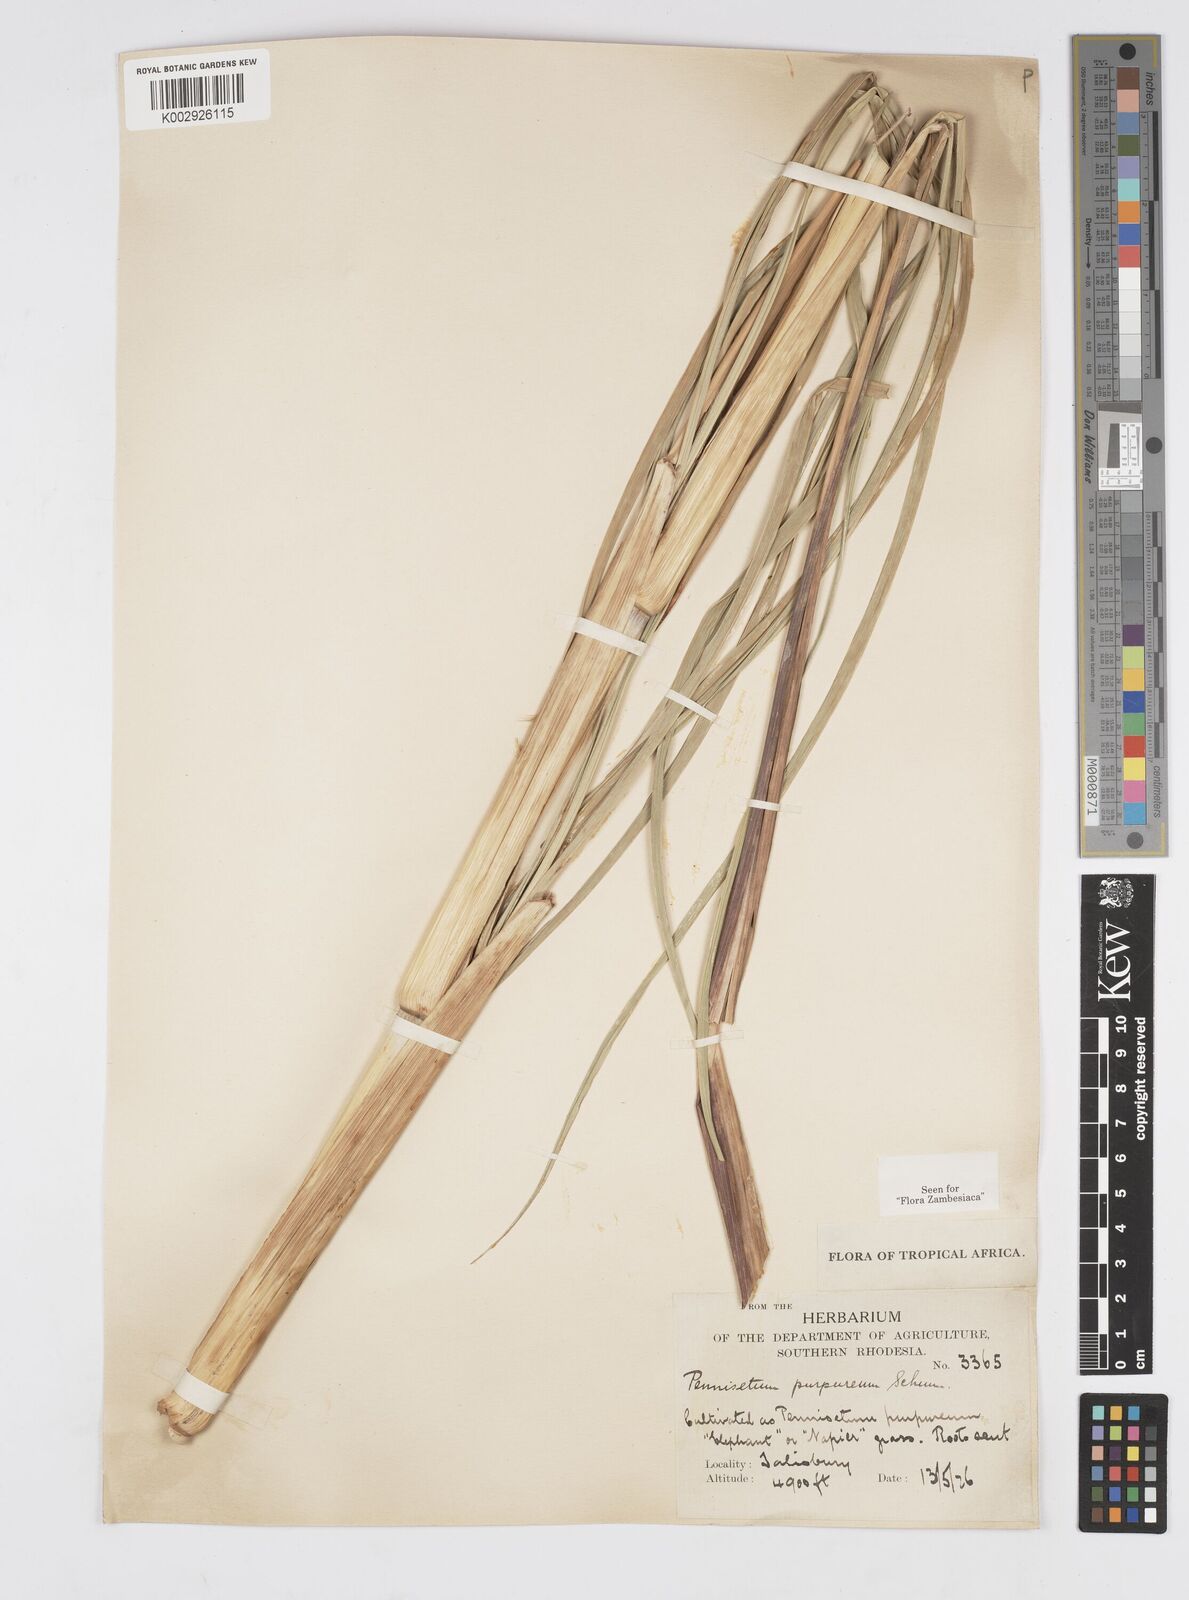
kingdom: Plantae
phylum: Tracheophyta
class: Liliopsida
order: Poales
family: Poaceae
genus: Cenchrus
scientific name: Cenchrus purpureus
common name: Elephant grass
